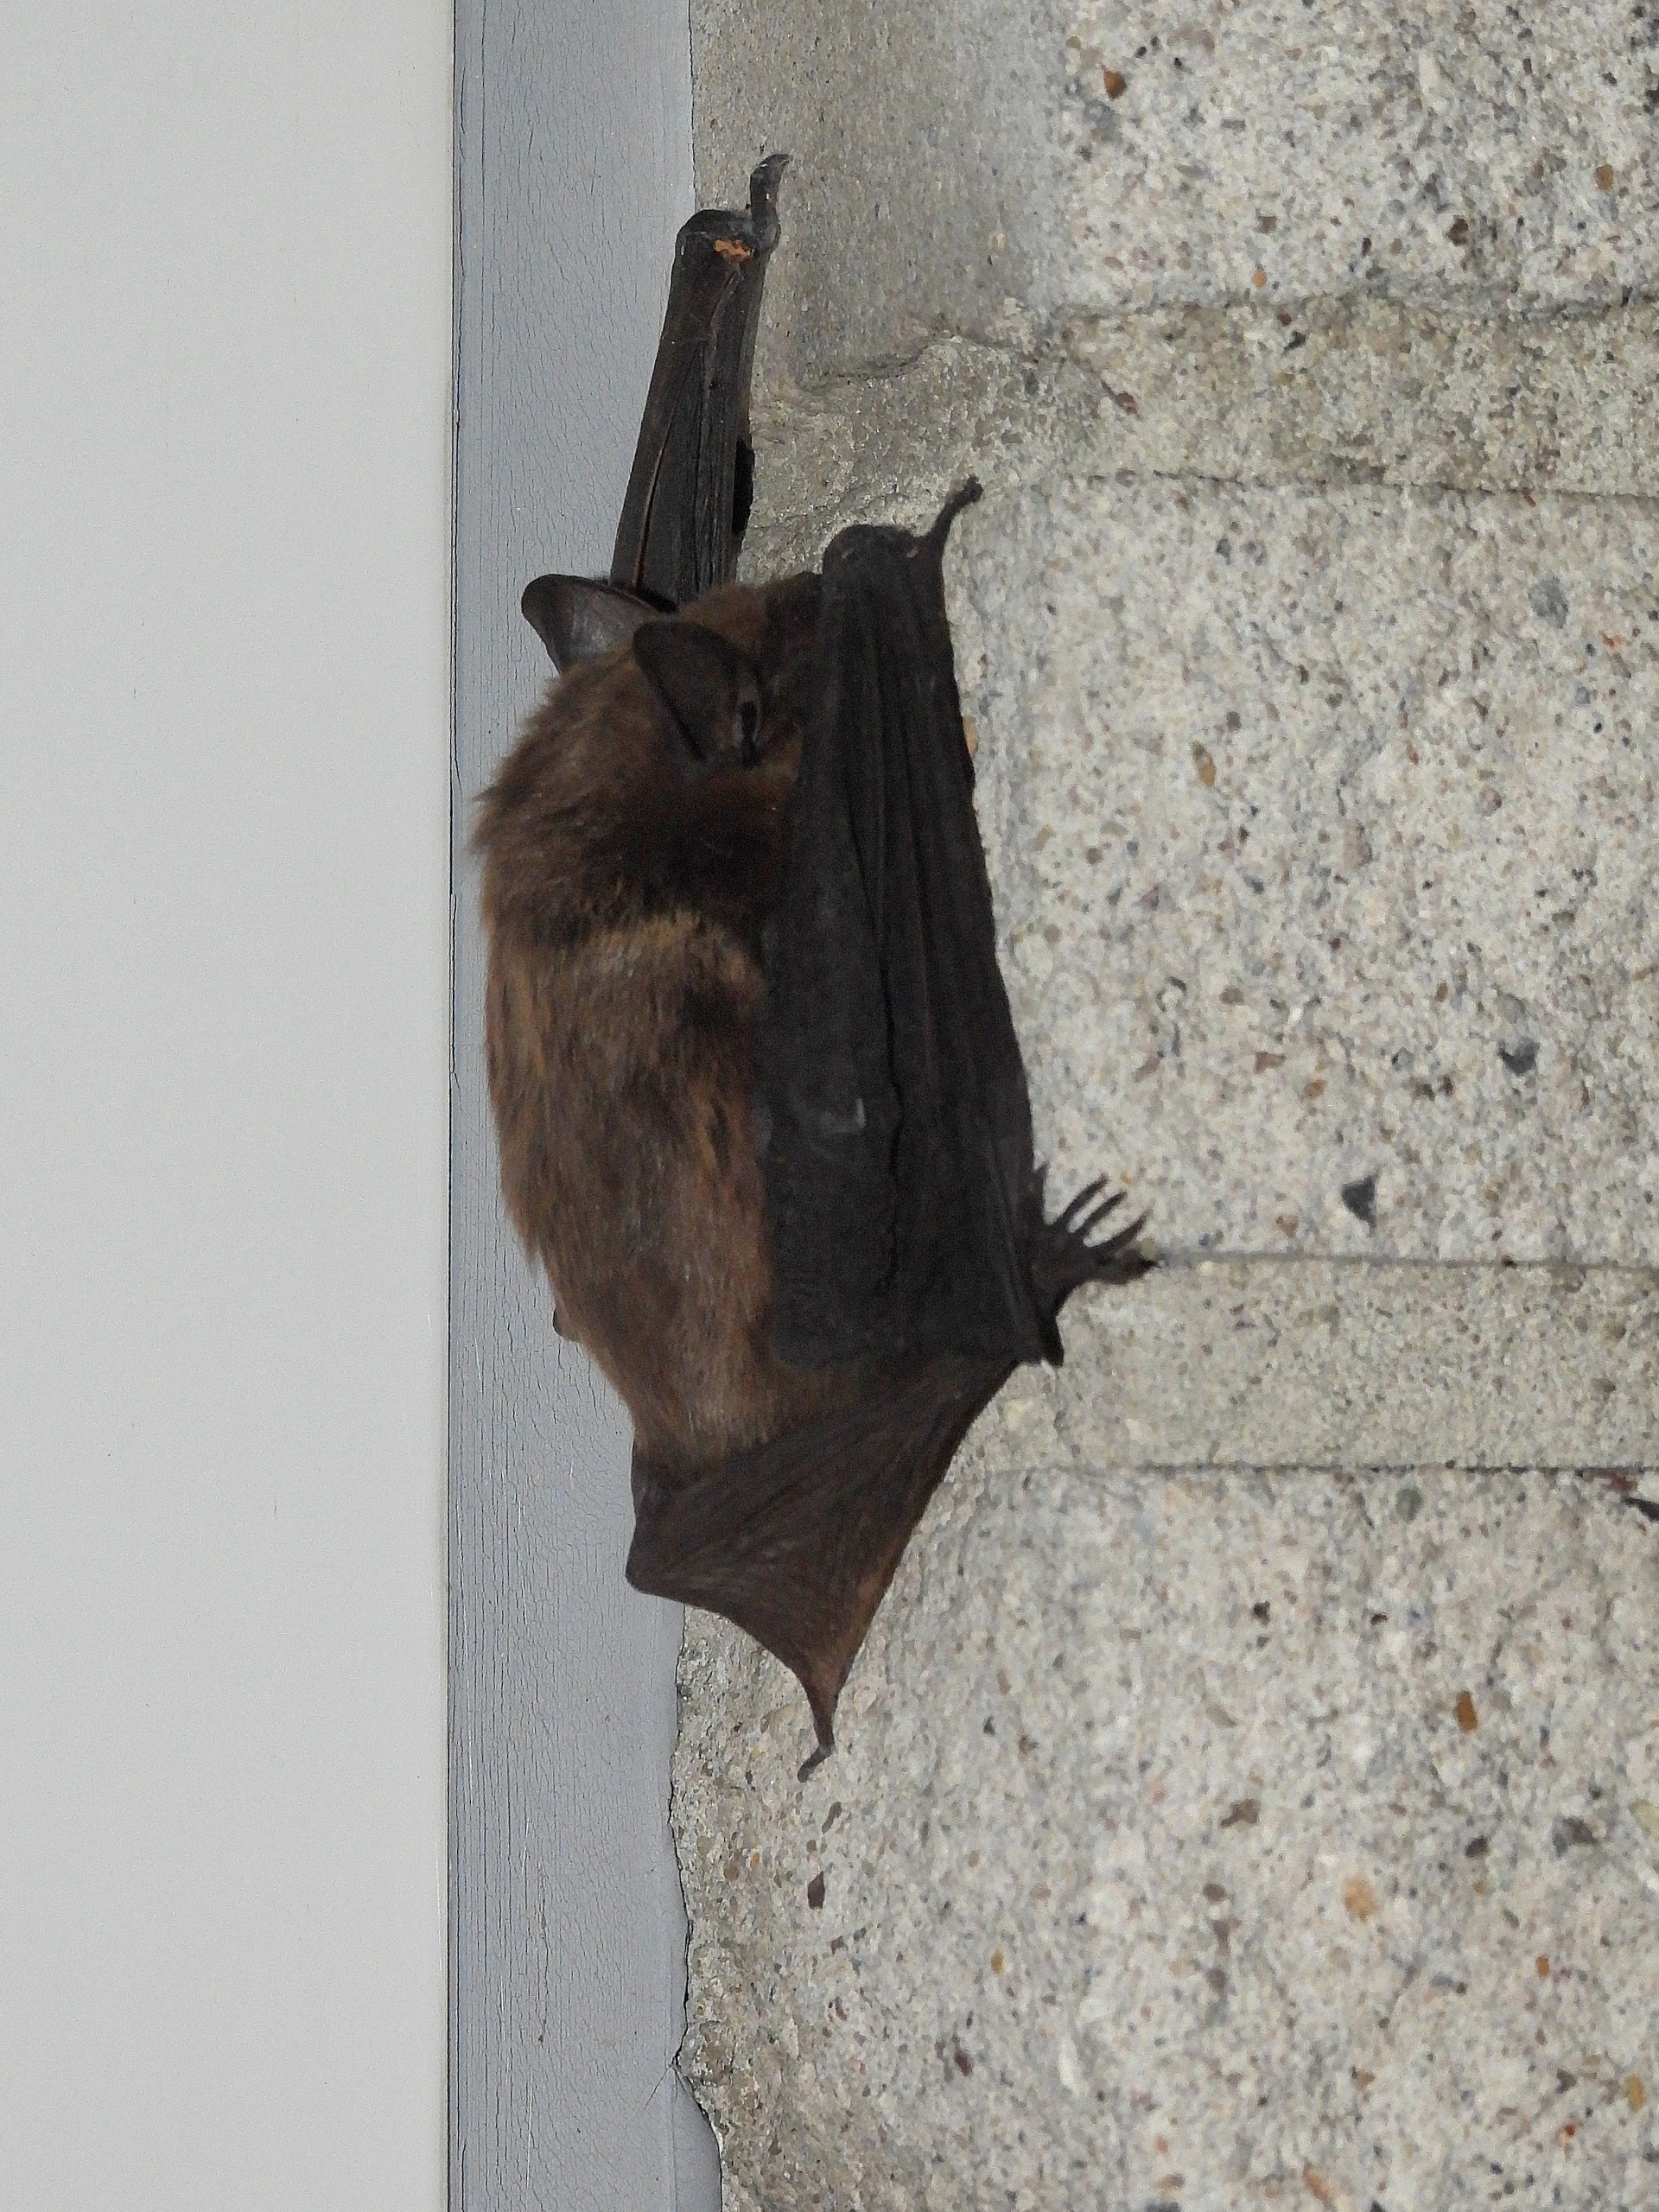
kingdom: Animalia
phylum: Chordata
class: Mammalia
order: Chiroptera
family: Vespertilionidae
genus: Eptesicus
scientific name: Eptesicus serotinus
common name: Sydflagermus
